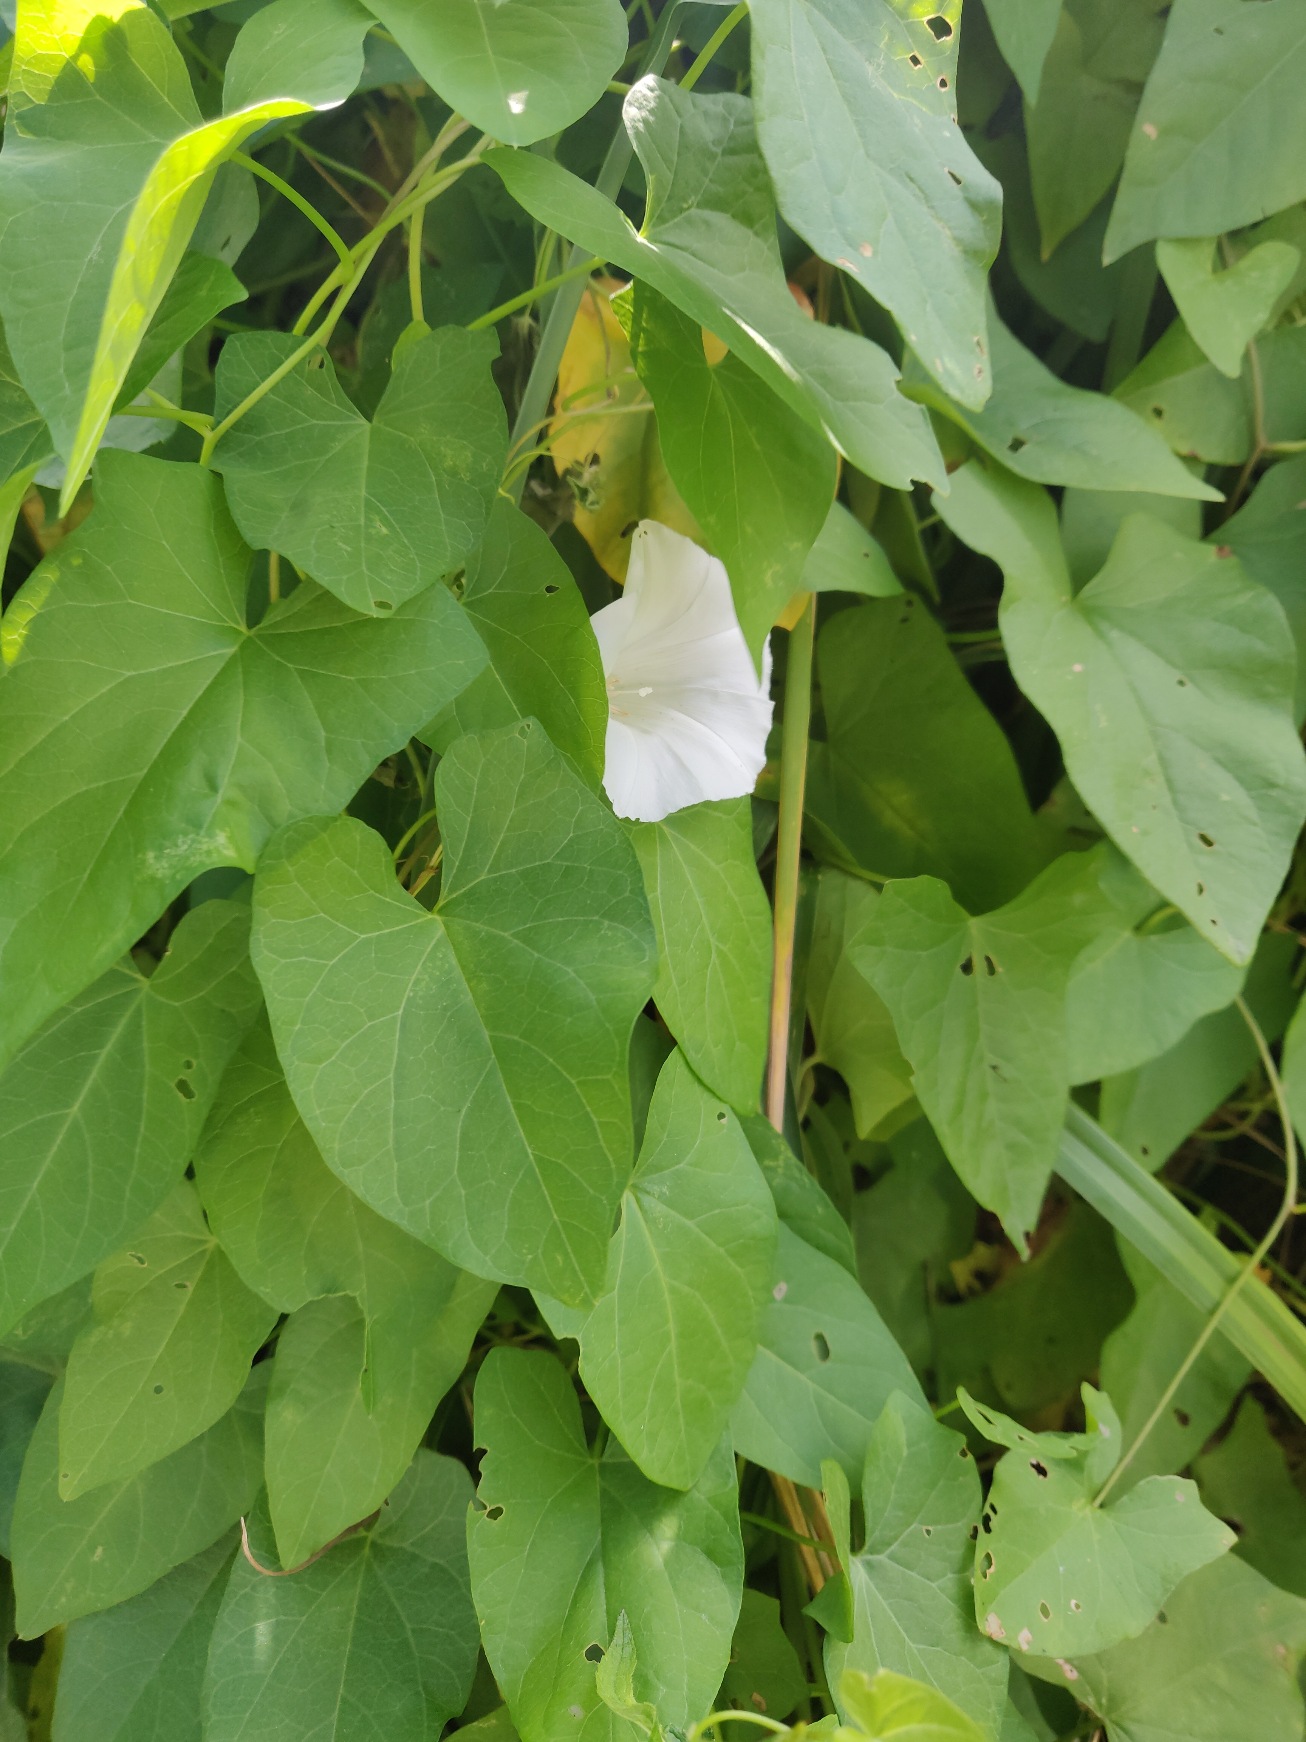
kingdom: Plantae
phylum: Tracheophyta
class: Magnoliopsida
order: Solanales
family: Convolvulaceae
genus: Calystegia
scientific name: Calystegia sepium
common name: Gærde-snerle
